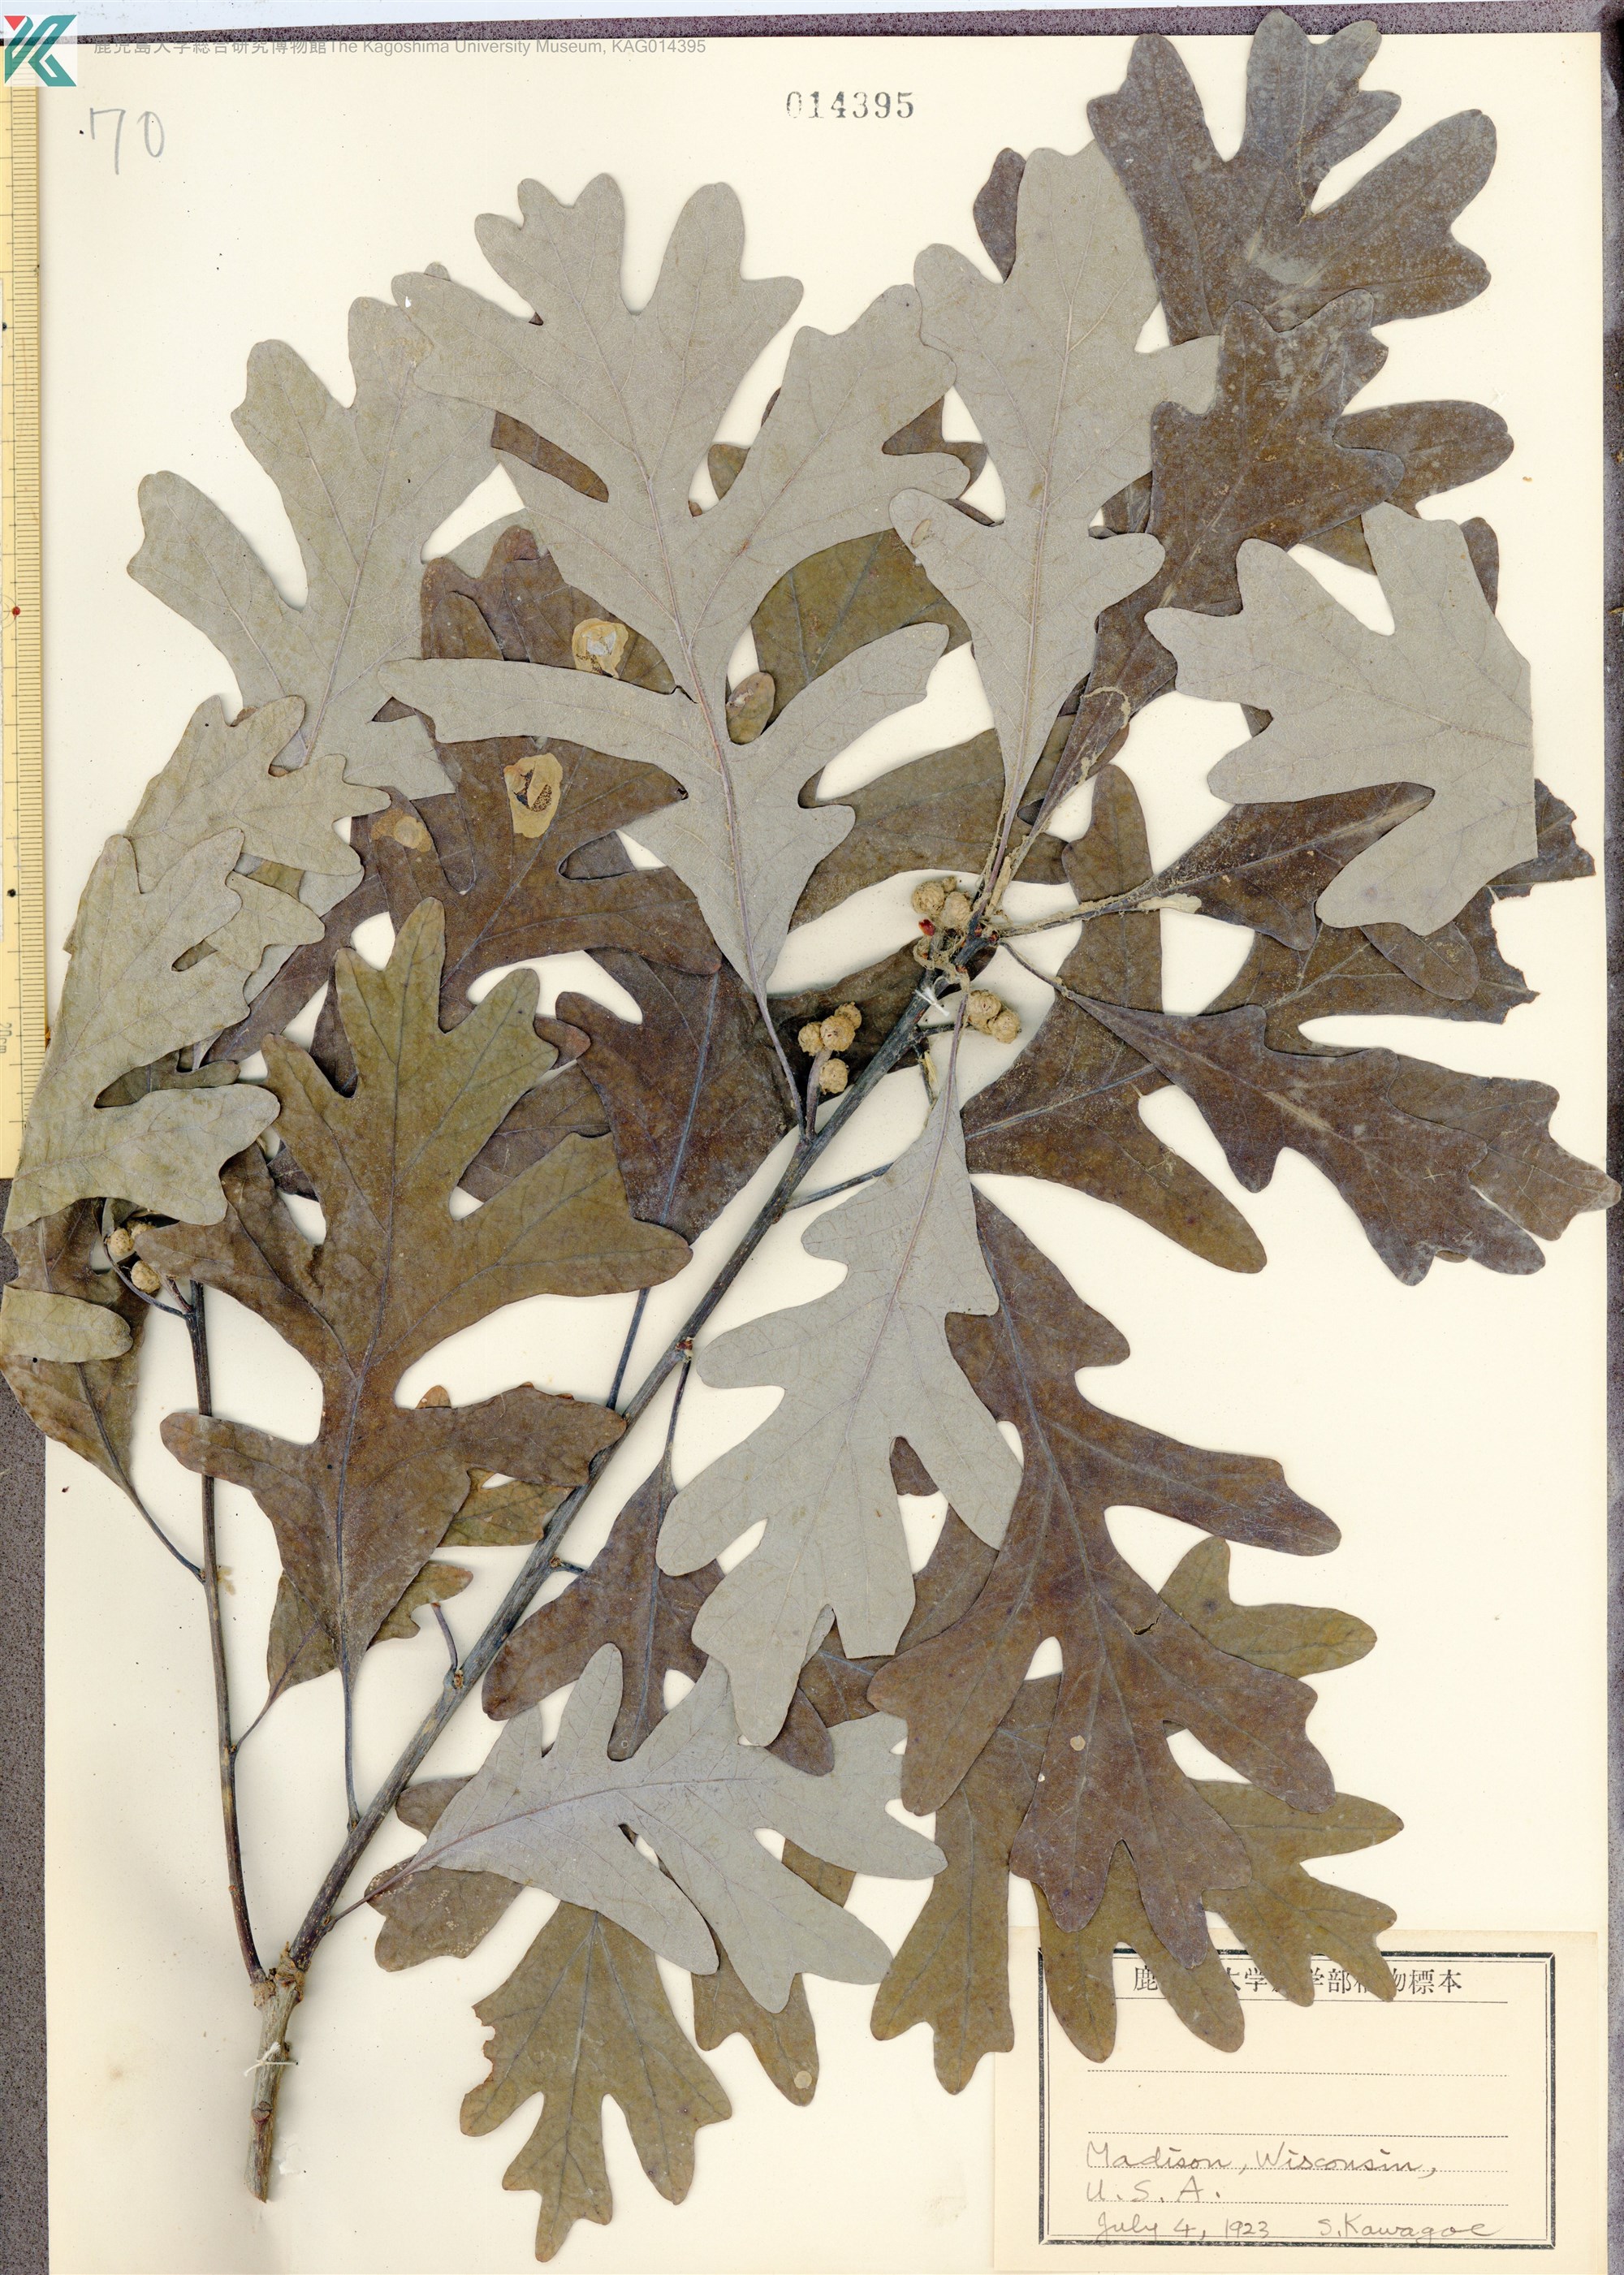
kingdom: Plantae
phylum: Tracheophyta
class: Magnoliopsida
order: Fagales
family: Fagaceae
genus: Quercus
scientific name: Quercus
